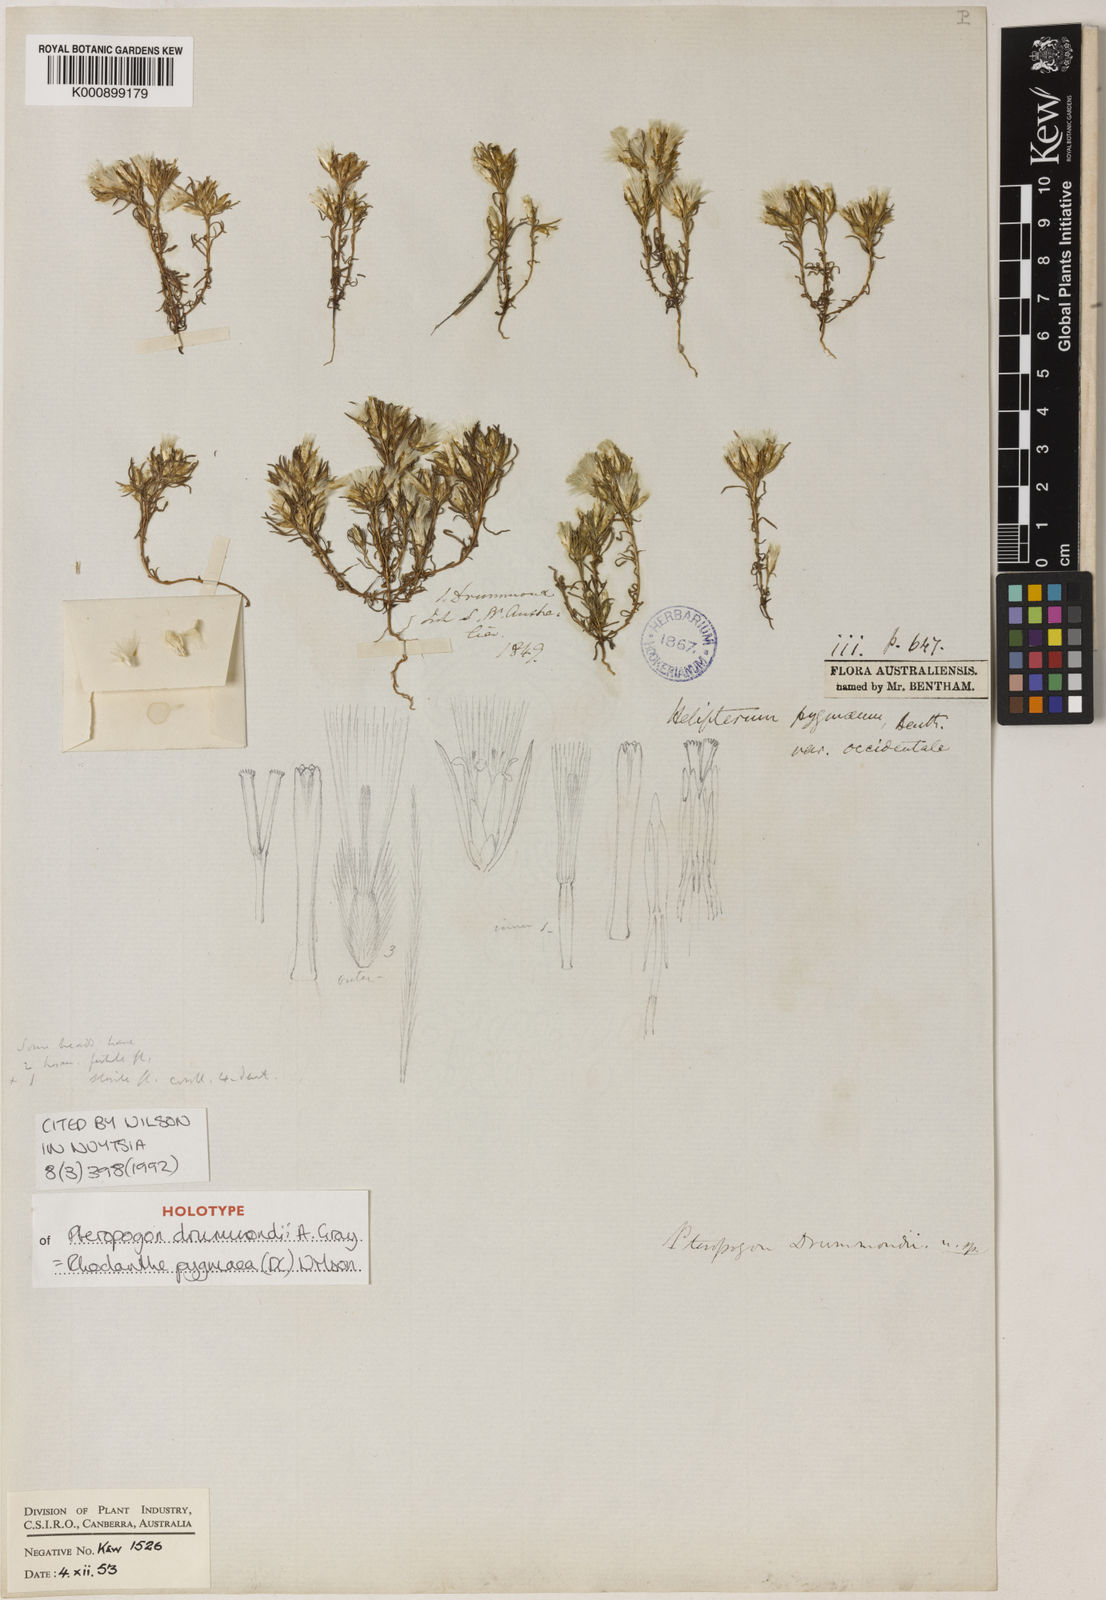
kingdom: Plantae
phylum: Tracheophyta
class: Magnoliopsida
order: Asterales
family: Asteraceae
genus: Rhodanthe
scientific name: Rhodanthe pygmaea
